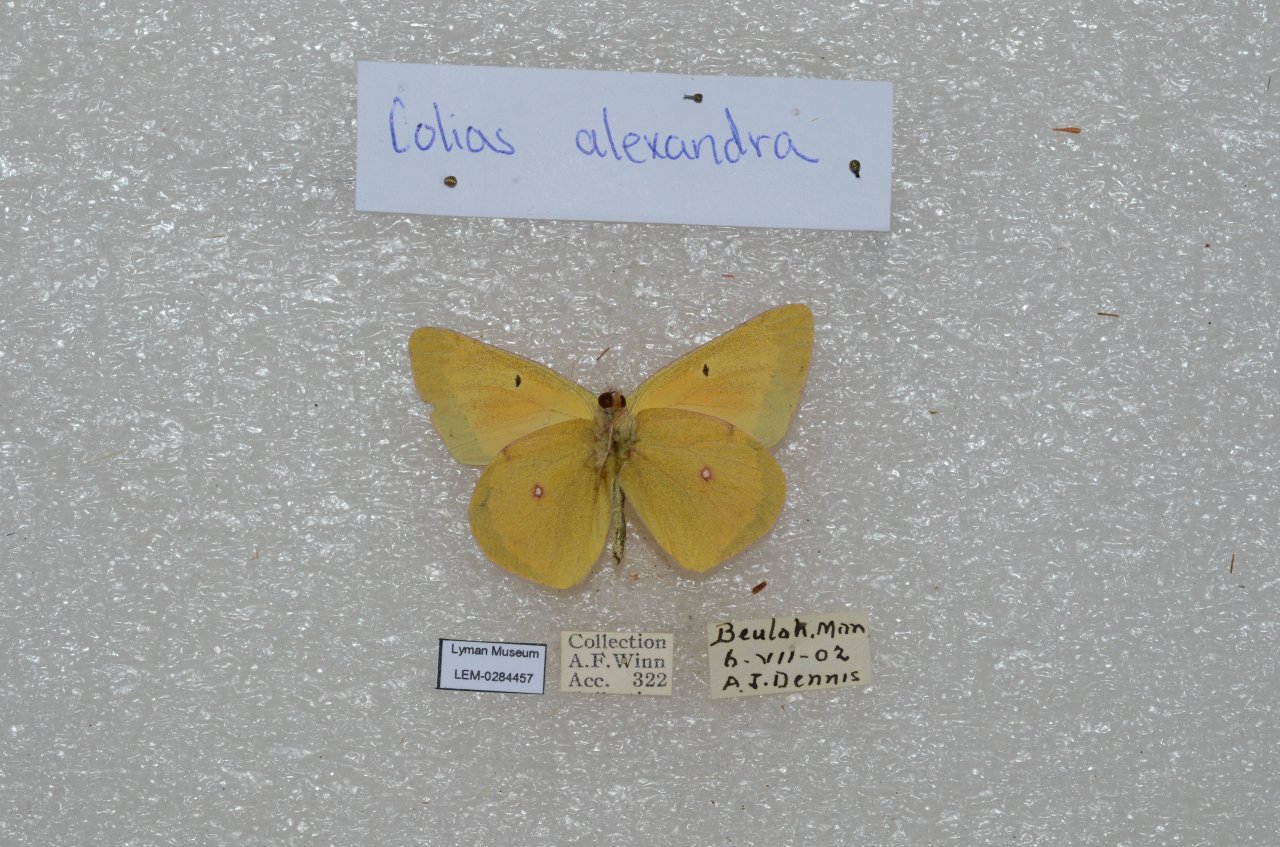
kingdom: Animalia
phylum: Arthropoda
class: Insecta
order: Lepidoptera
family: Pieridae
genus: Colias
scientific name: Colias christina
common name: Christina Sulphur
